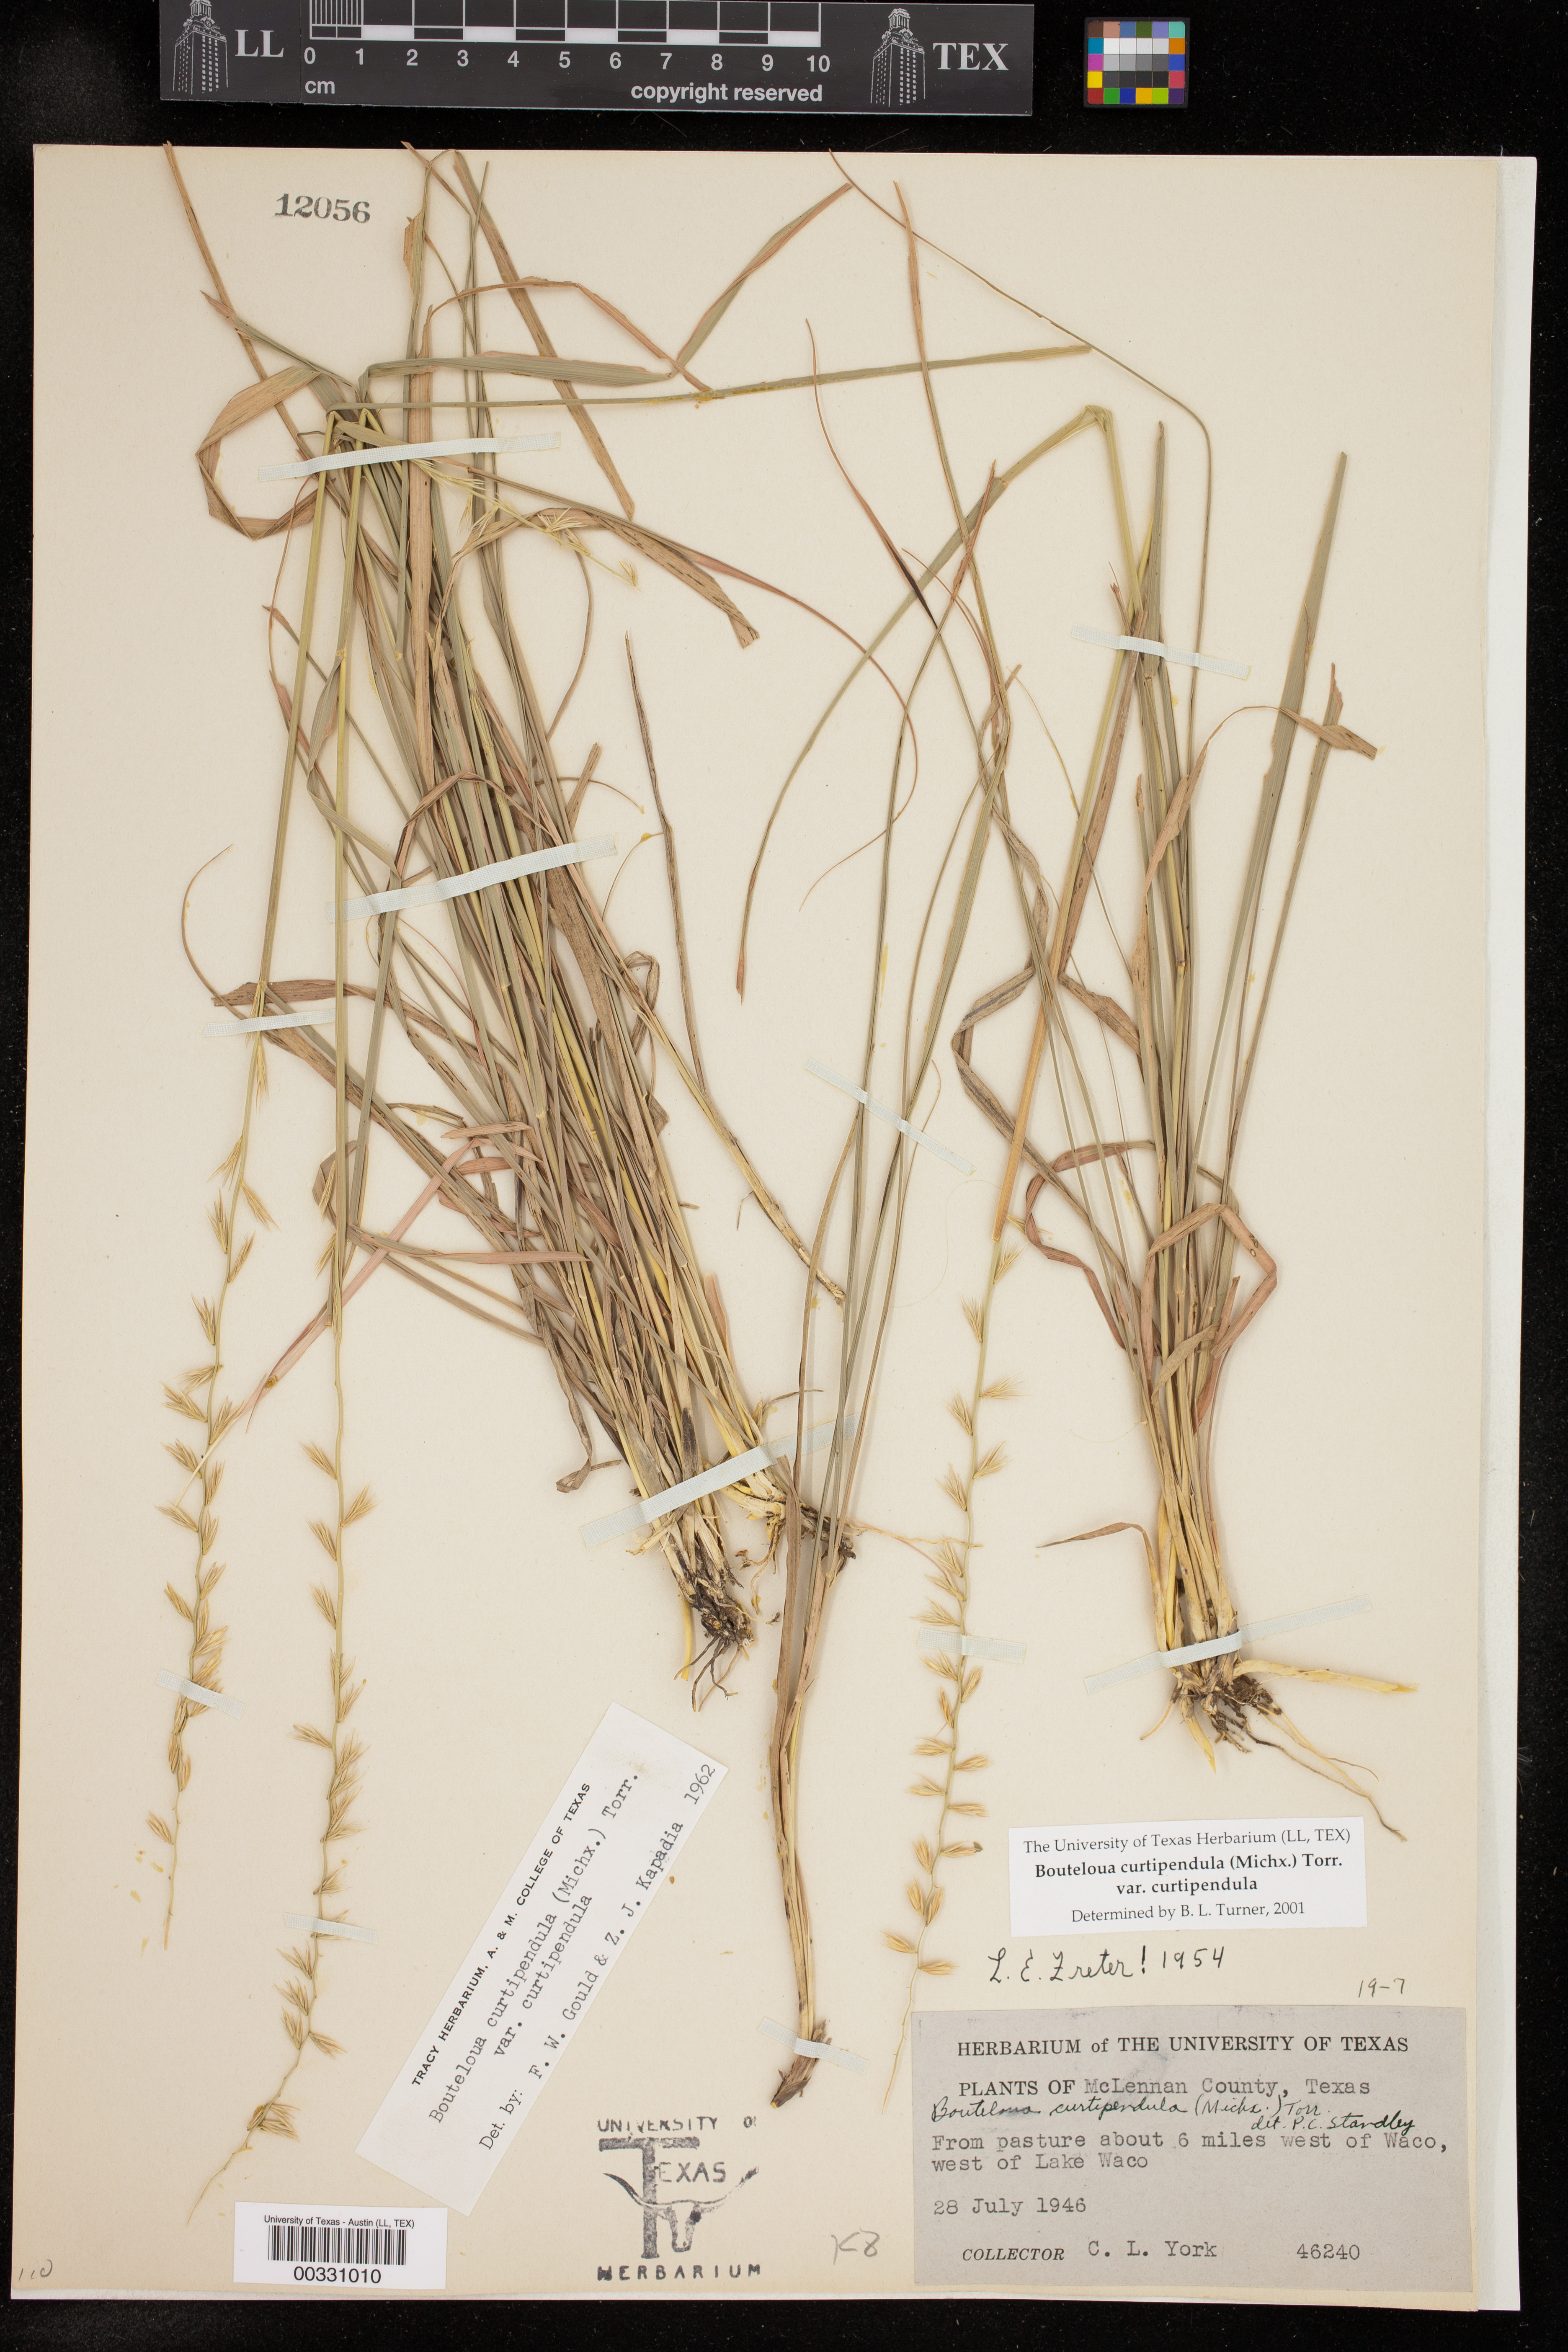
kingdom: Plantae
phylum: Tracheophyta
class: Liliopsida
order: Poales
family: Poaceae
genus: Bouteloua
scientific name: Bouteloua curtipendula
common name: Side-oats grama
